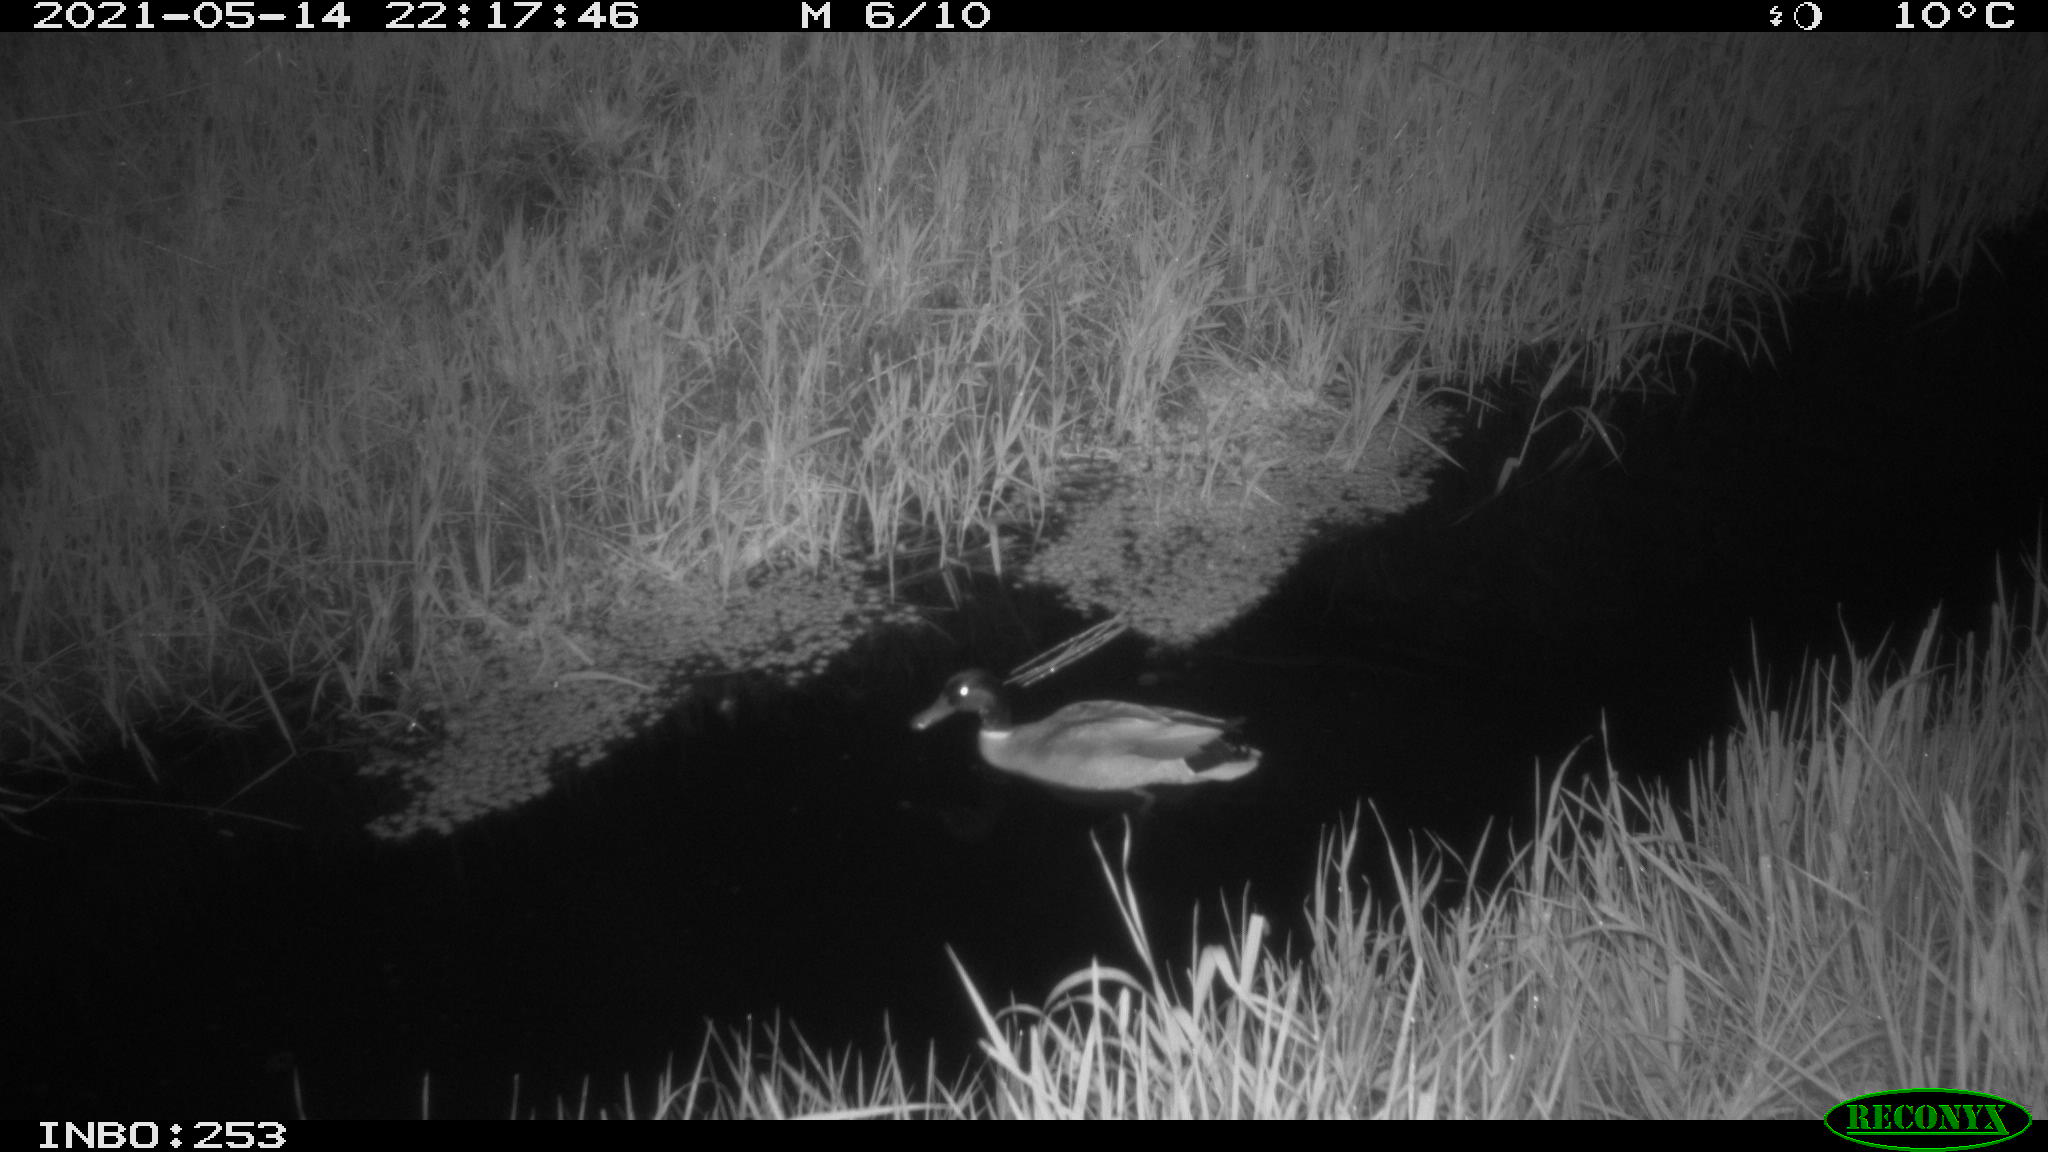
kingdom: Animalia
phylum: Chordata
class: Aves
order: Anseriformes
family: Anatidae
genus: Anas
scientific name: Anas platyrhynchos
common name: Mallard
